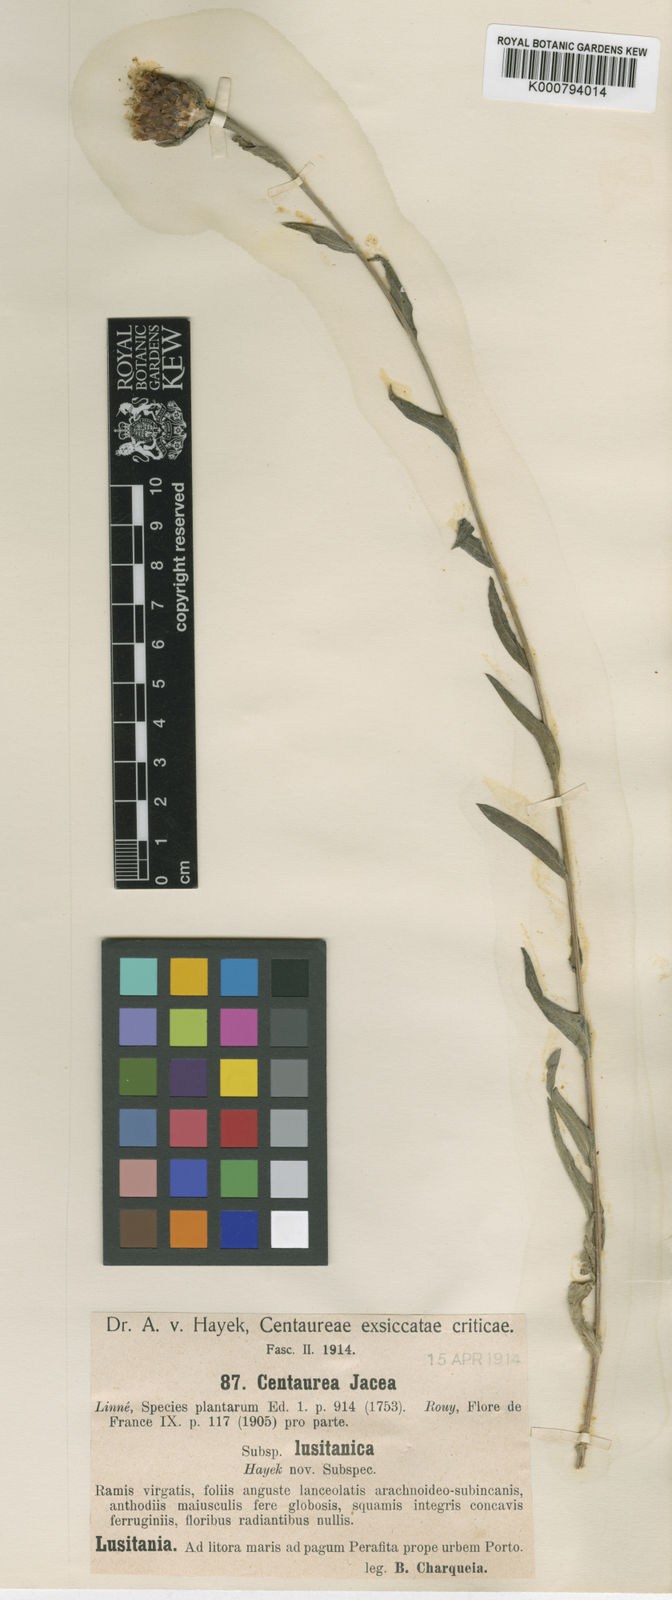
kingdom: Plantae
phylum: Tracheophyta
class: Magnoliopsida
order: Asterales
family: Asteraceae
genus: Centaurea
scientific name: Centaurea jacea
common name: Brown knapweed
